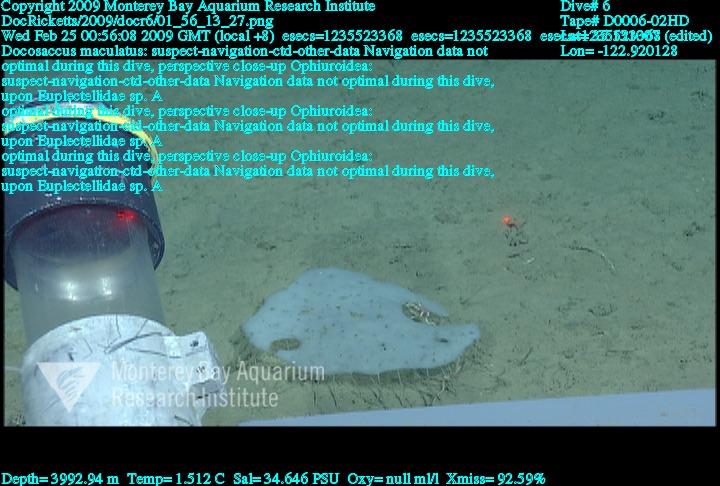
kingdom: Animalia
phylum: Porifera
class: Hexactinellida
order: Lyssacinosida
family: Euplectellidae
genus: Docosaccus
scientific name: Docosaccus maculatus
